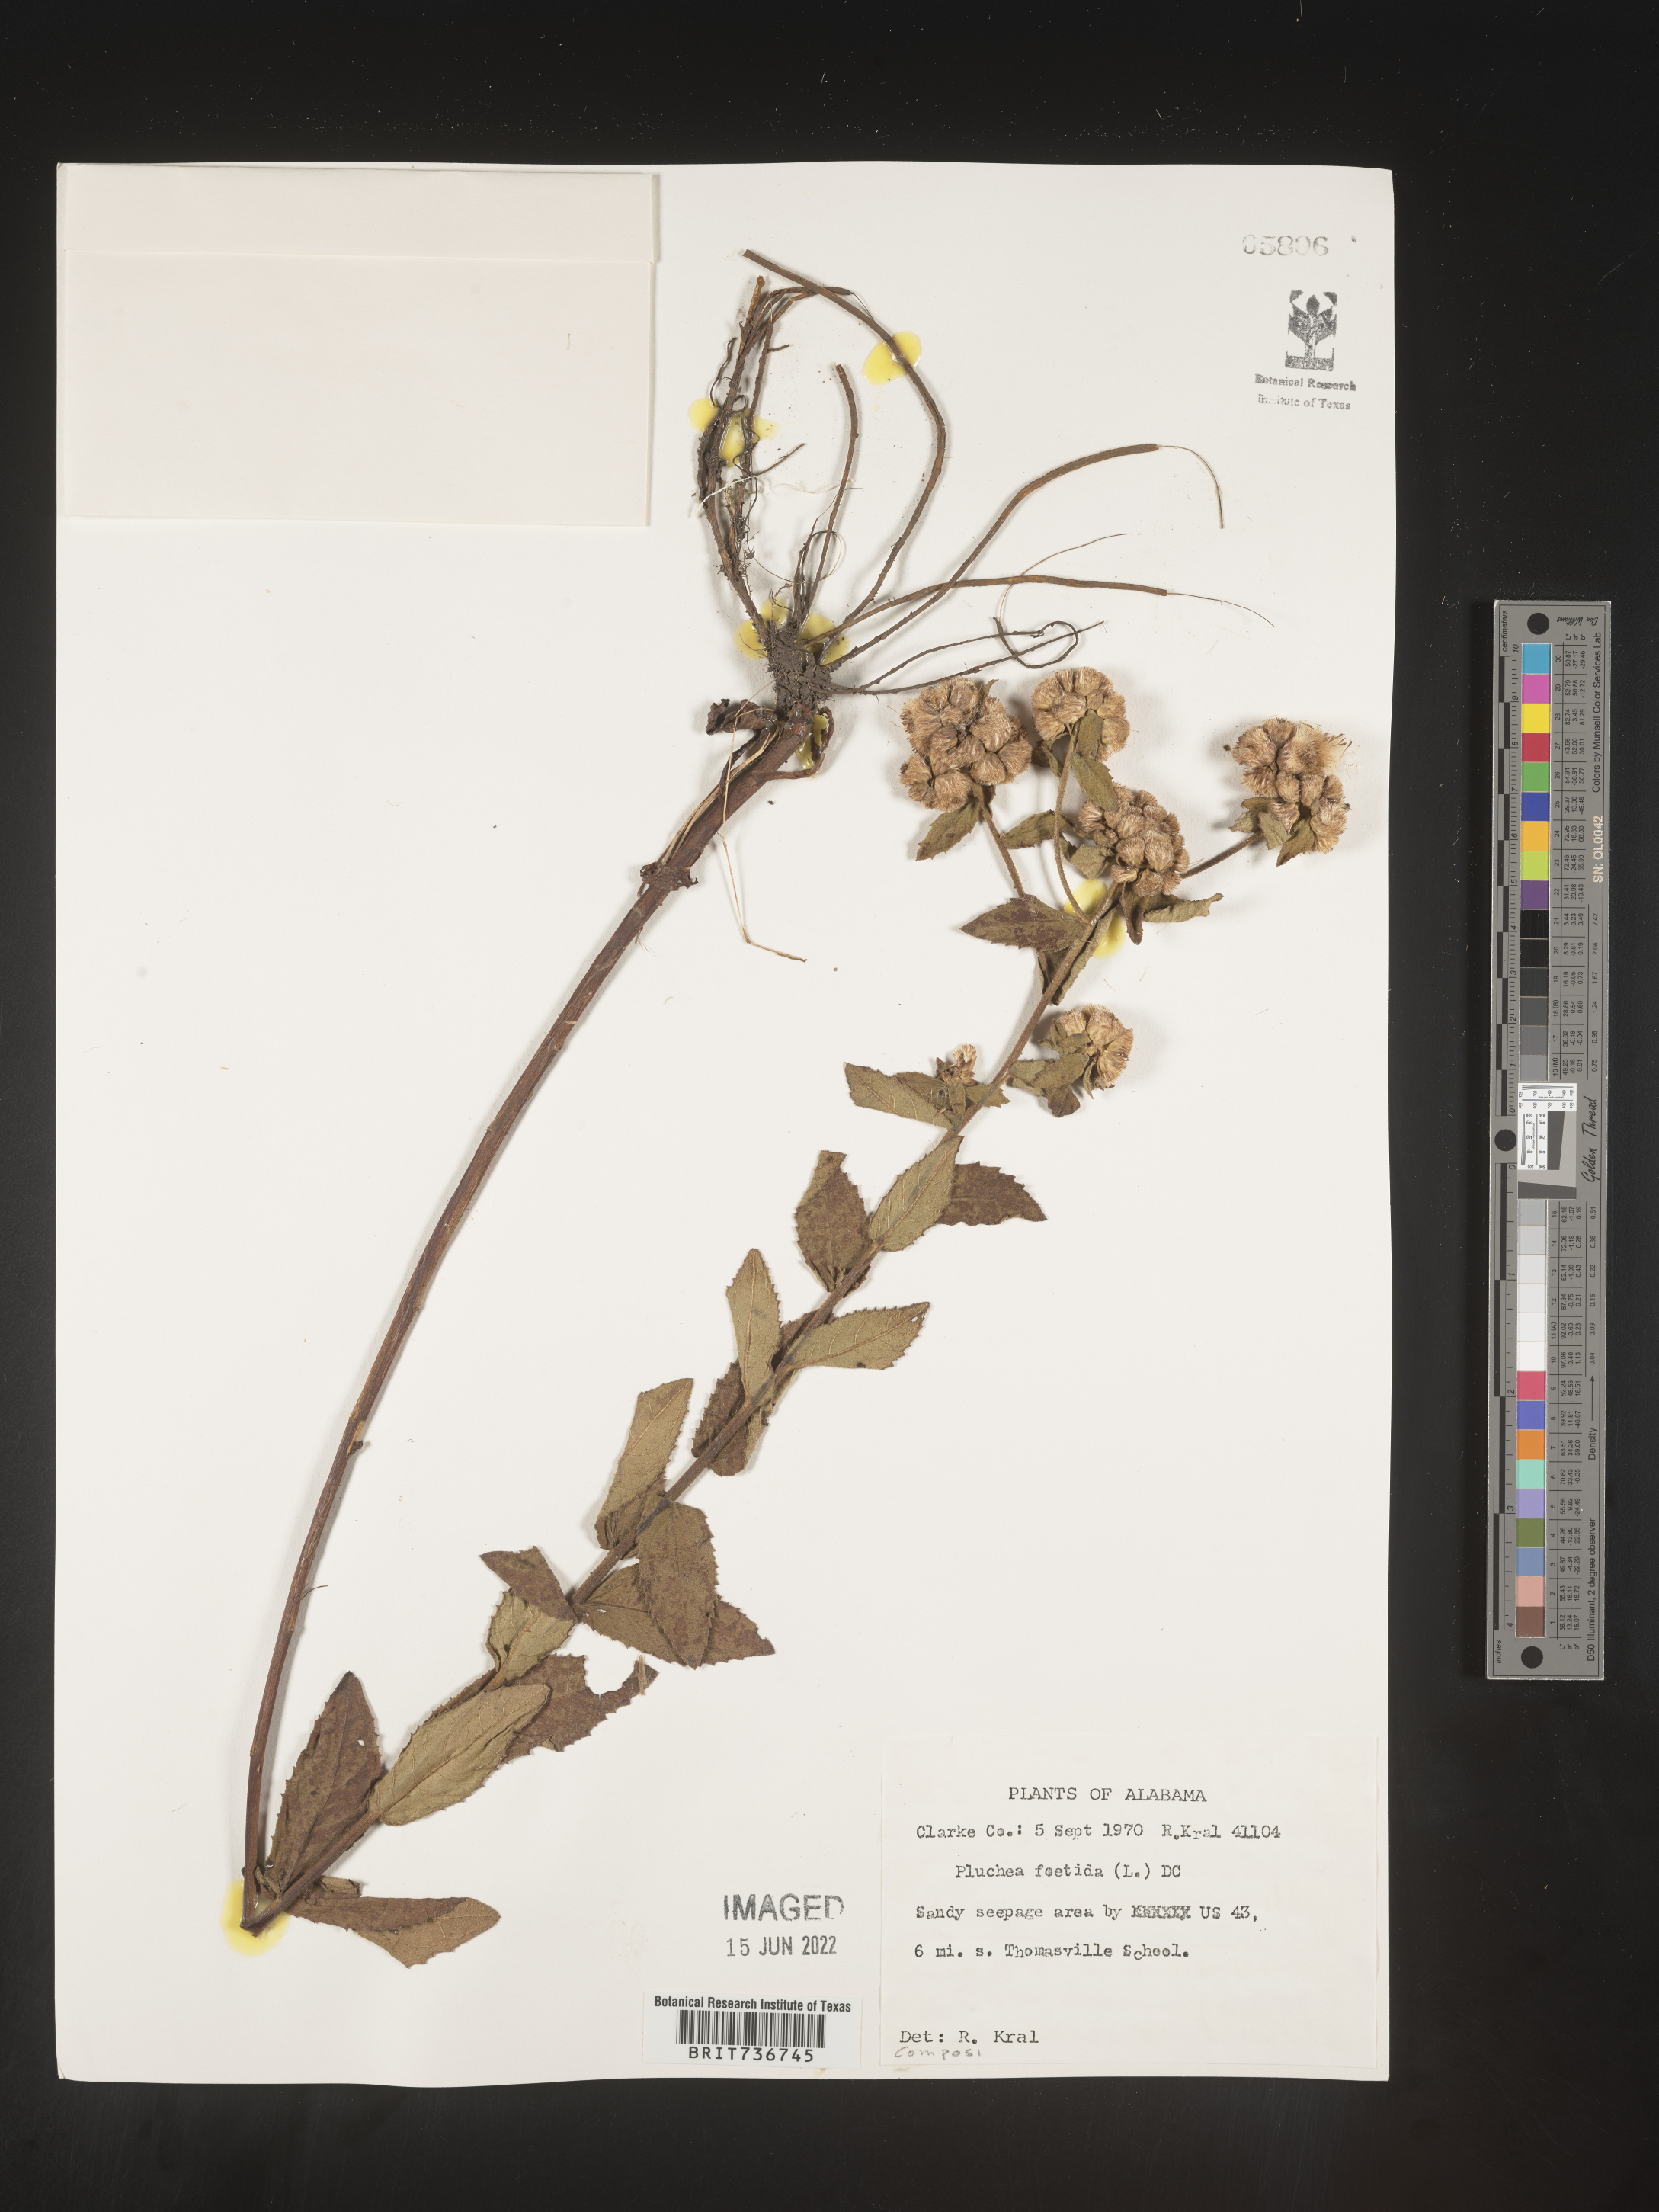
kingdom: Plantae
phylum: Tracheophyta
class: Magnoliopsida
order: Asterales
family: Asteraceae
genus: Pluchea
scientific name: Pluchea baccharis
